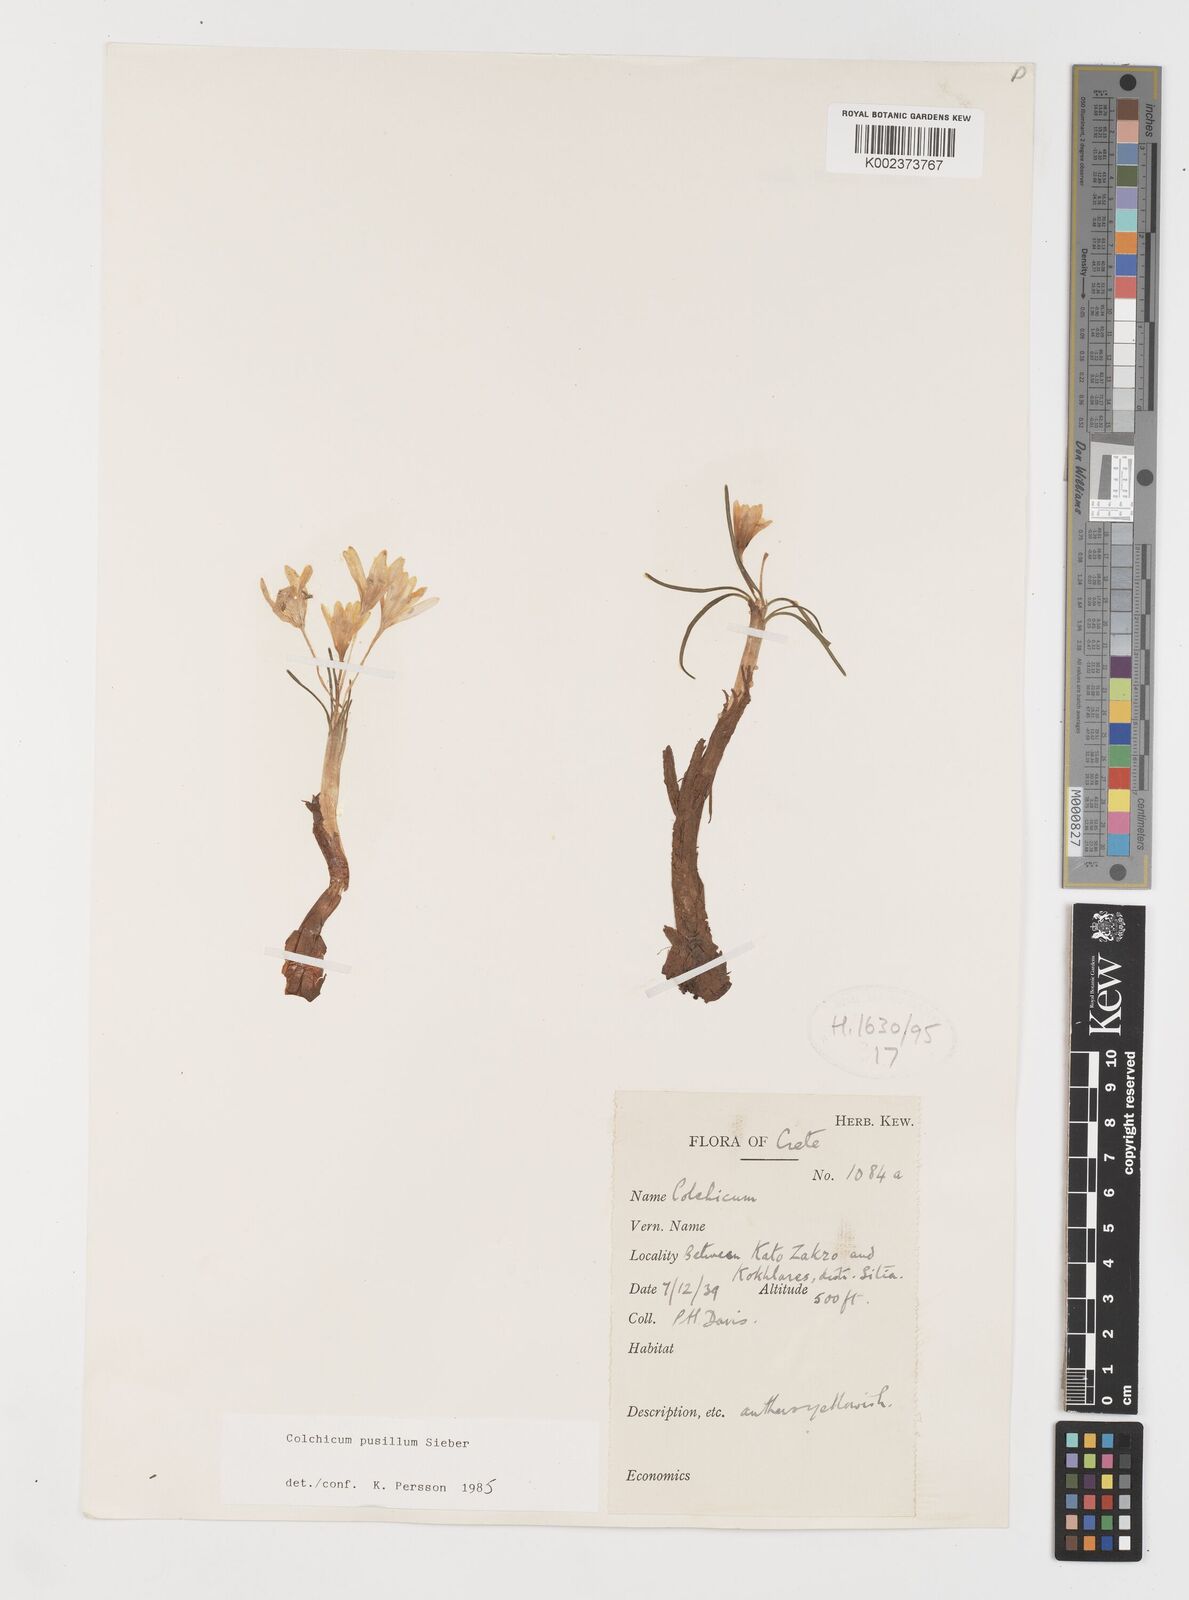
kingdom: Plantae
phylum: Tracheophyta
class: Liliopsida
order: Liliales
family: Colchicaceae
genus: Colchicum
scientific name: Colchicum pusillum
